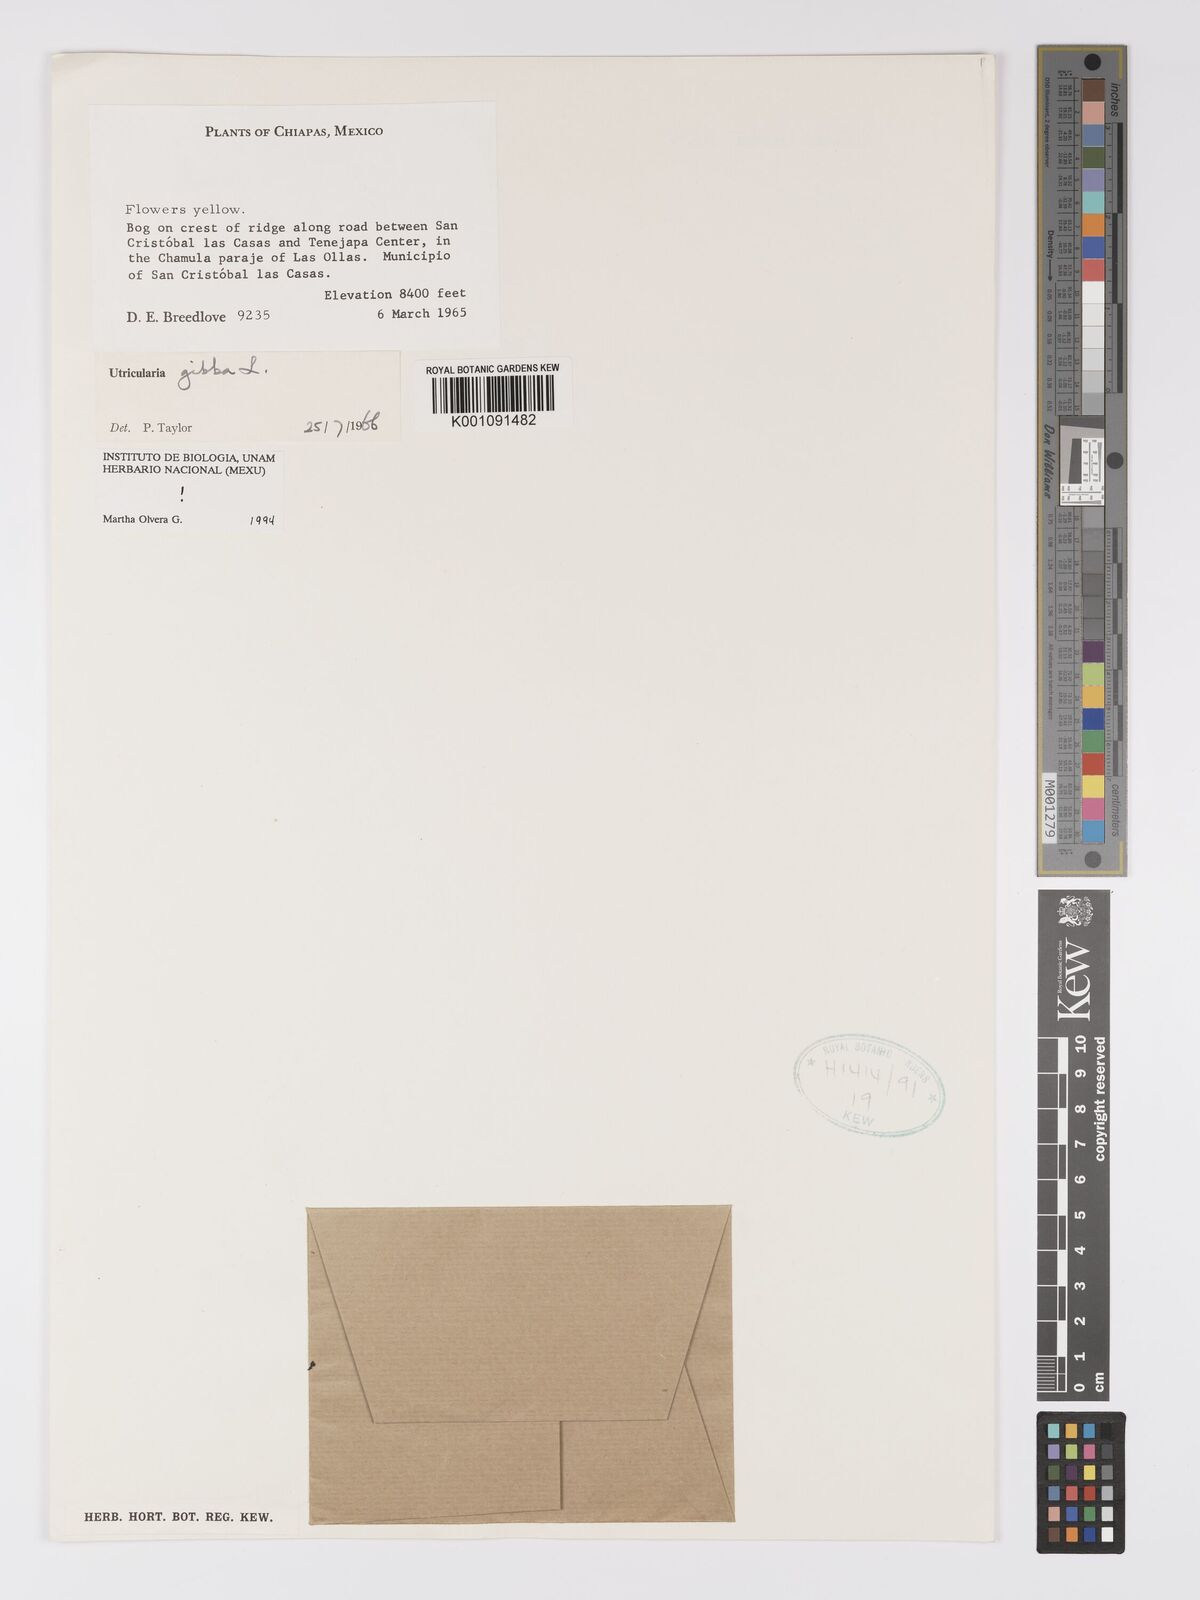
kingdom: Plantae
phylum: Tracheophyta
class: Magnoliopsida
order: Lamiales
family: Lentibulariaceae
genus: Utricularia
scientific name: Utricularia gibba
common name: Humped bladderwort
